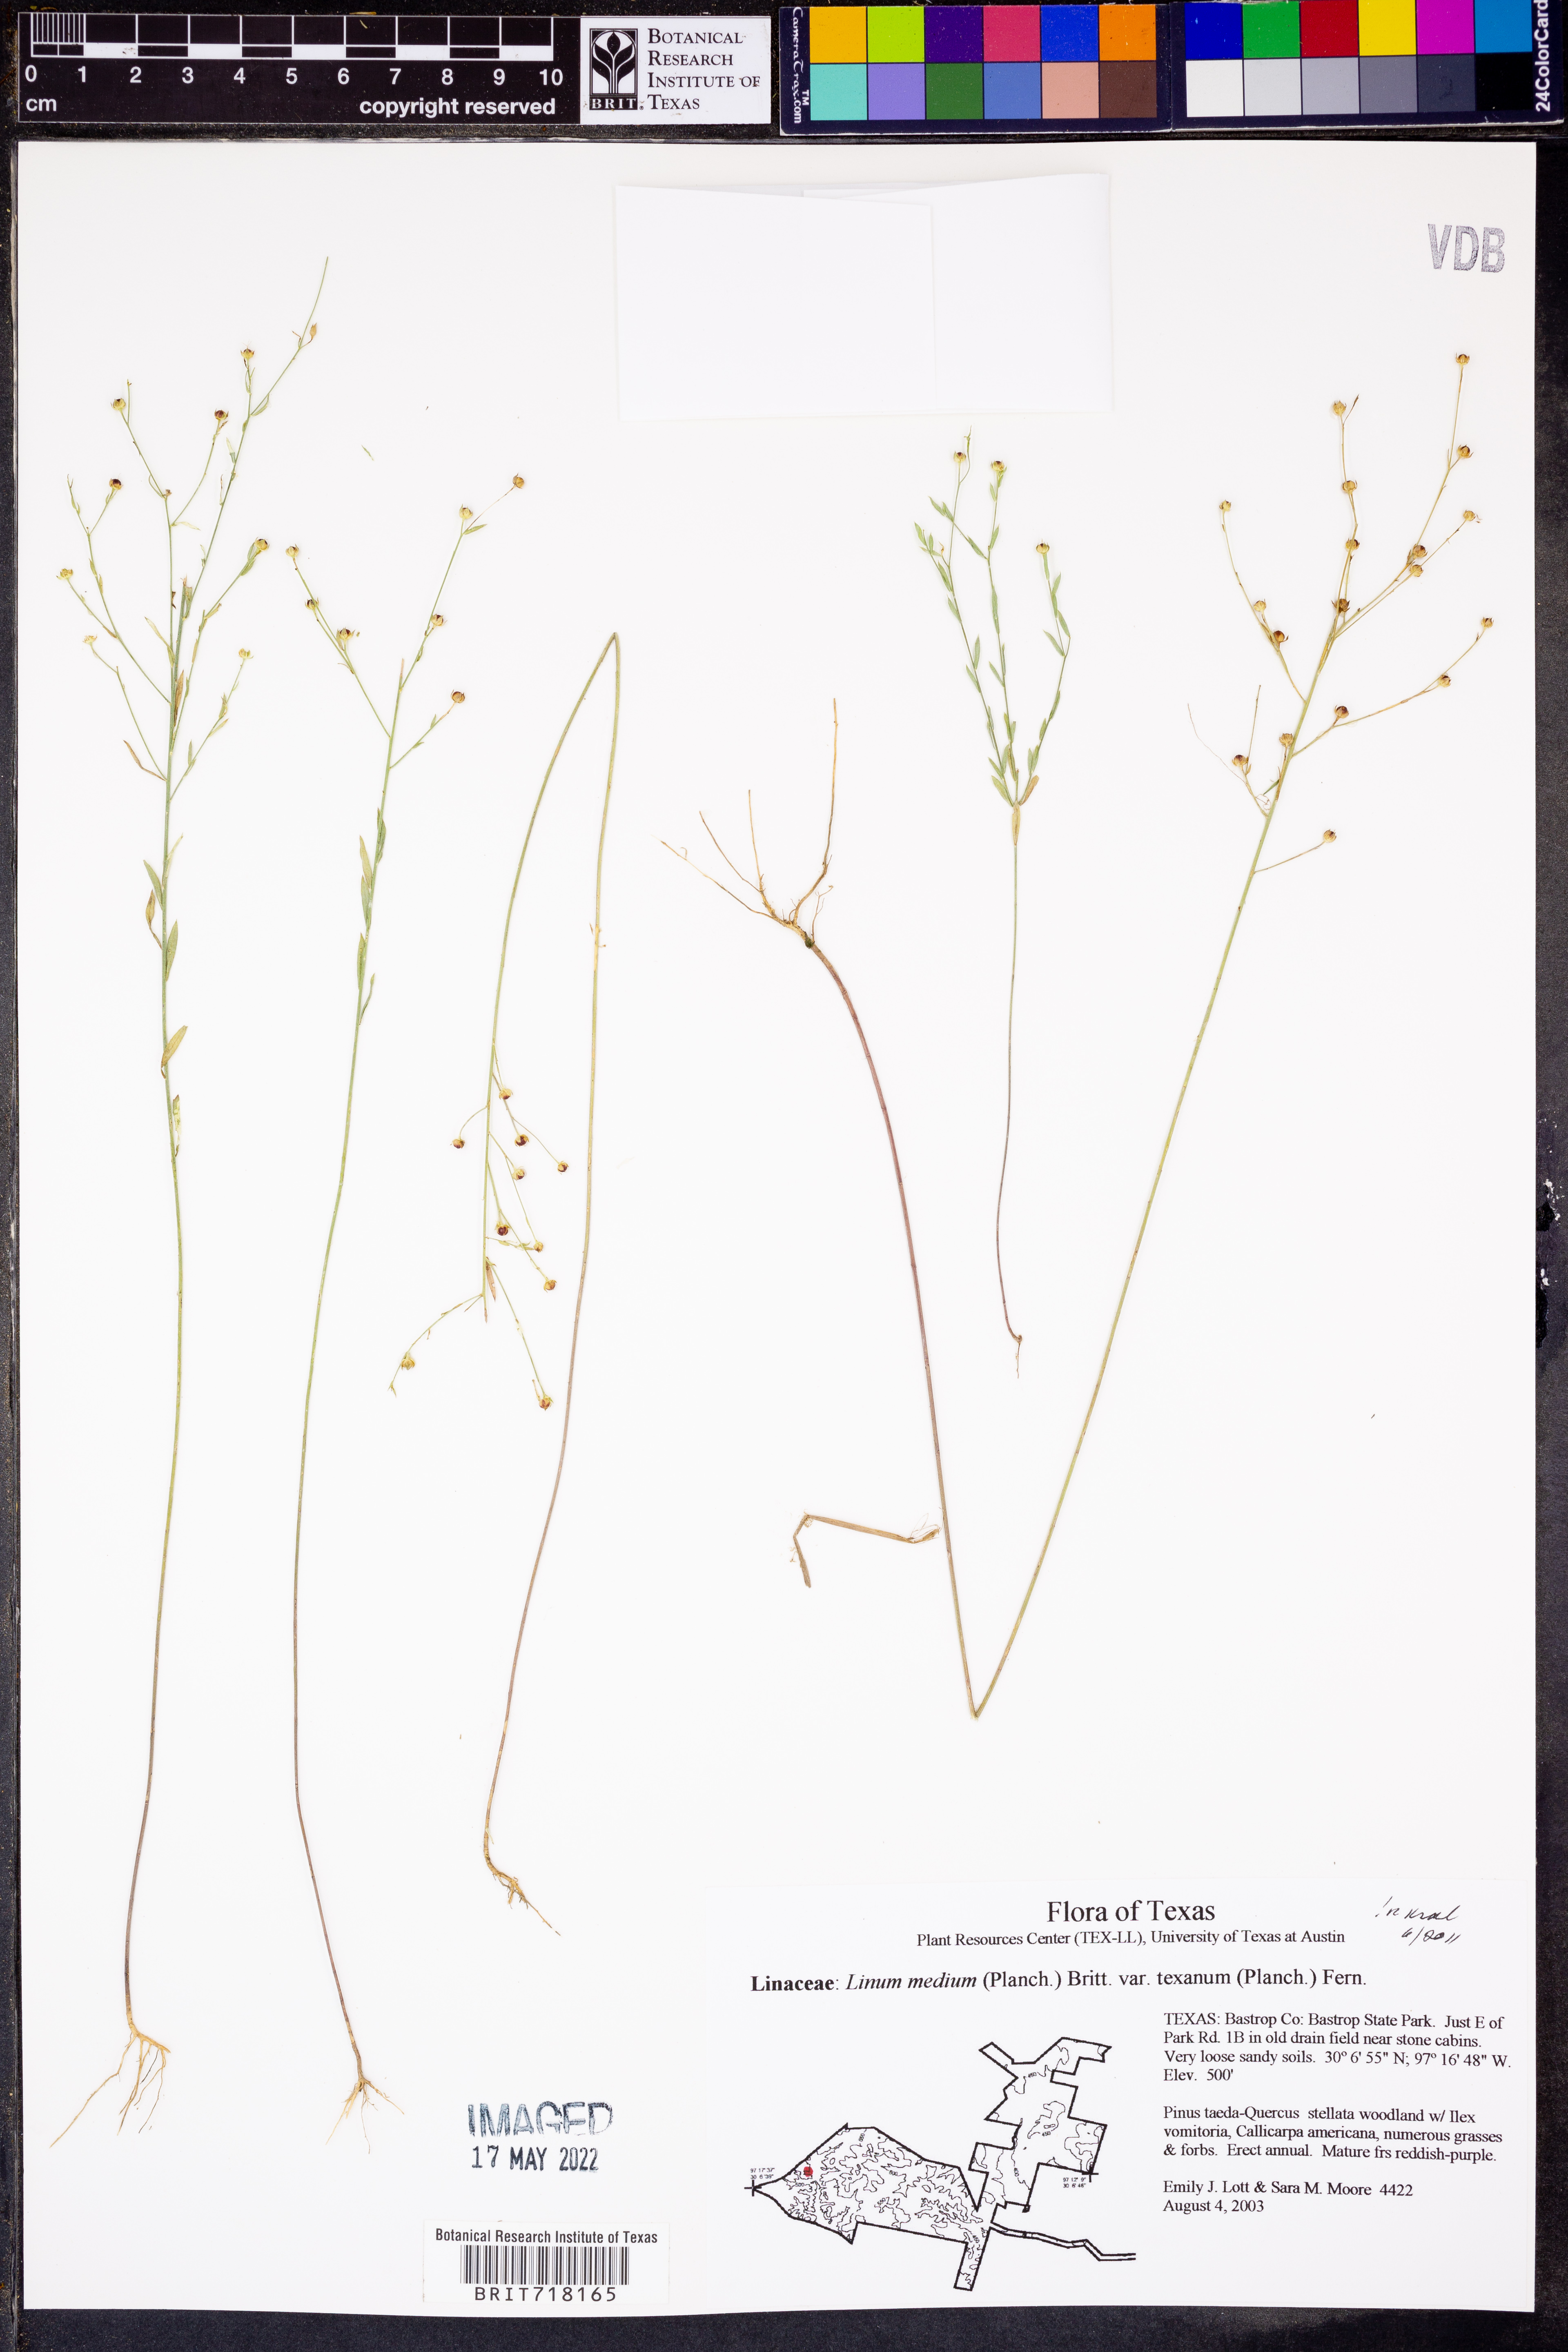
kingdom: Plantae
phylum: Tracheophyta
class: Magnoliopsida
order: Malpighiales
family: Linaceae
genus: Linum
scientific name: Linum medium
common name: Stiff yellow flax
